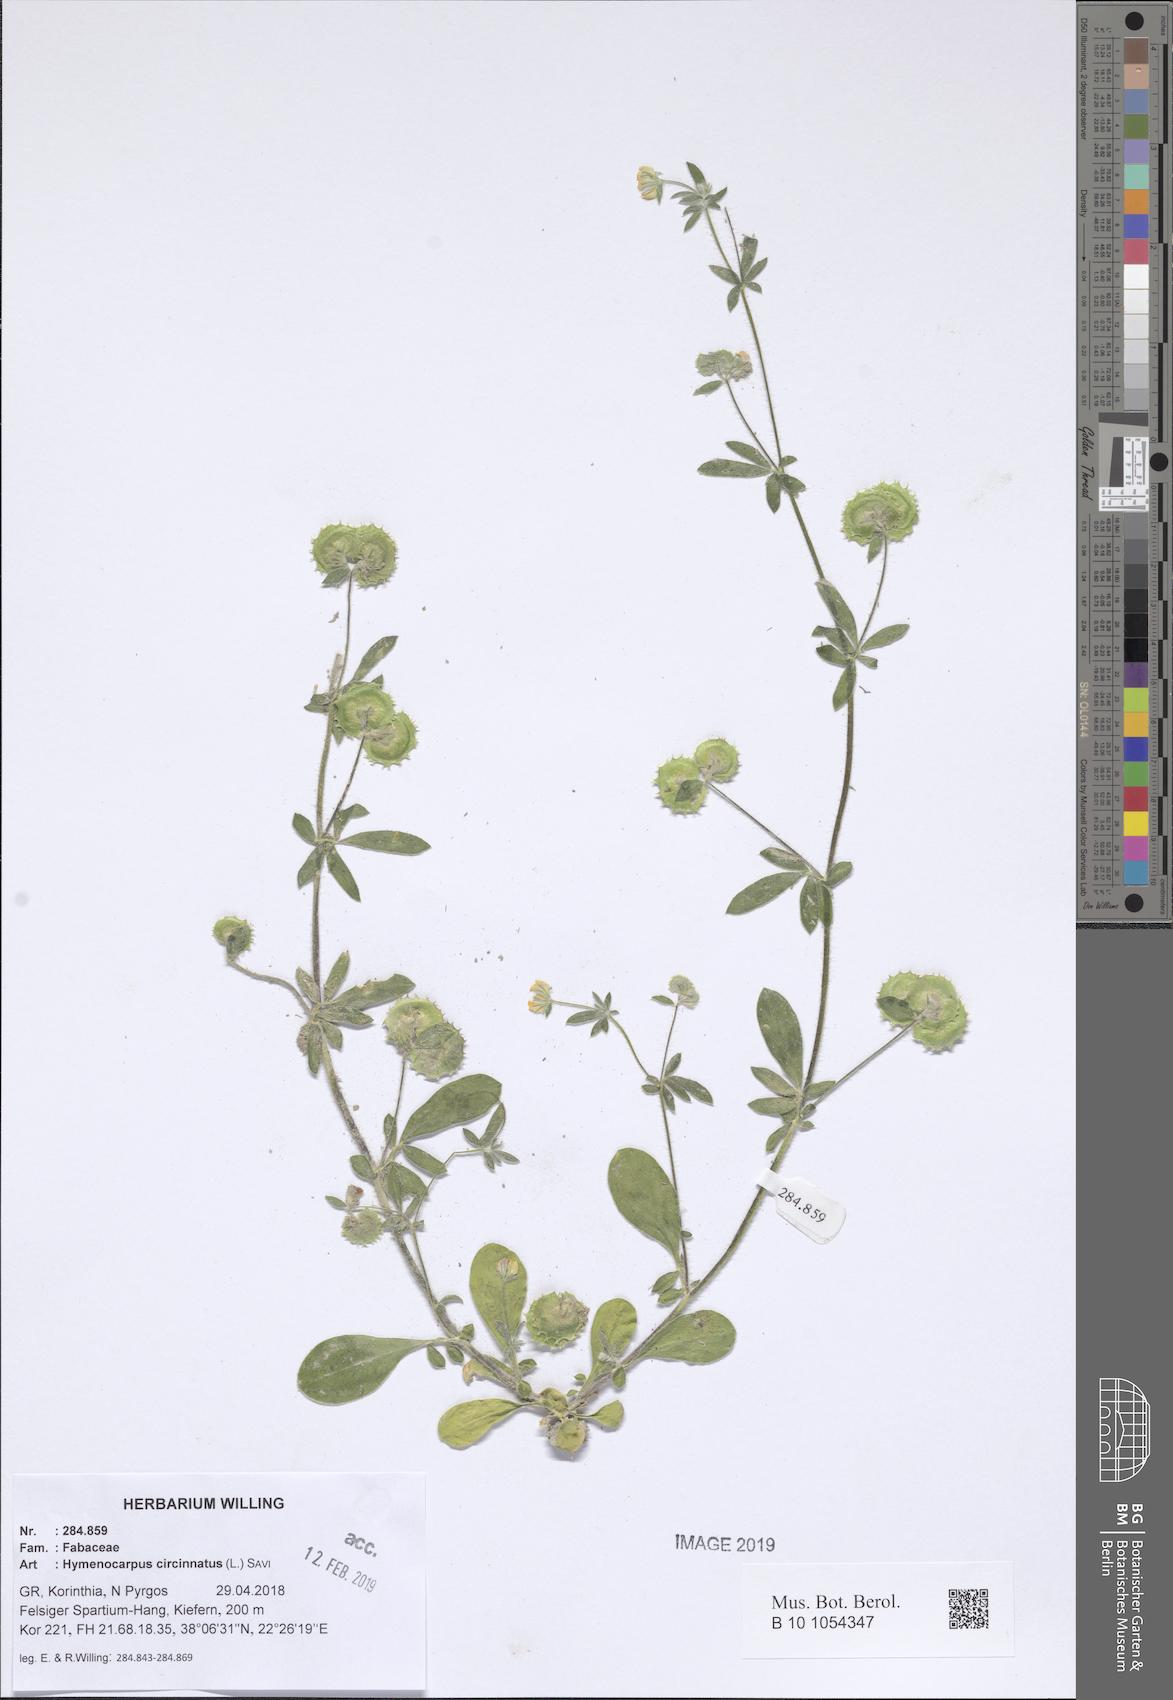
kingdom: Plantae
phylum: Tracheophyta
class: Magnoliopsida
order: Fabales
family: Fabaceae
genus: Anthyllis
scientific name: Anthyllis circinnata
